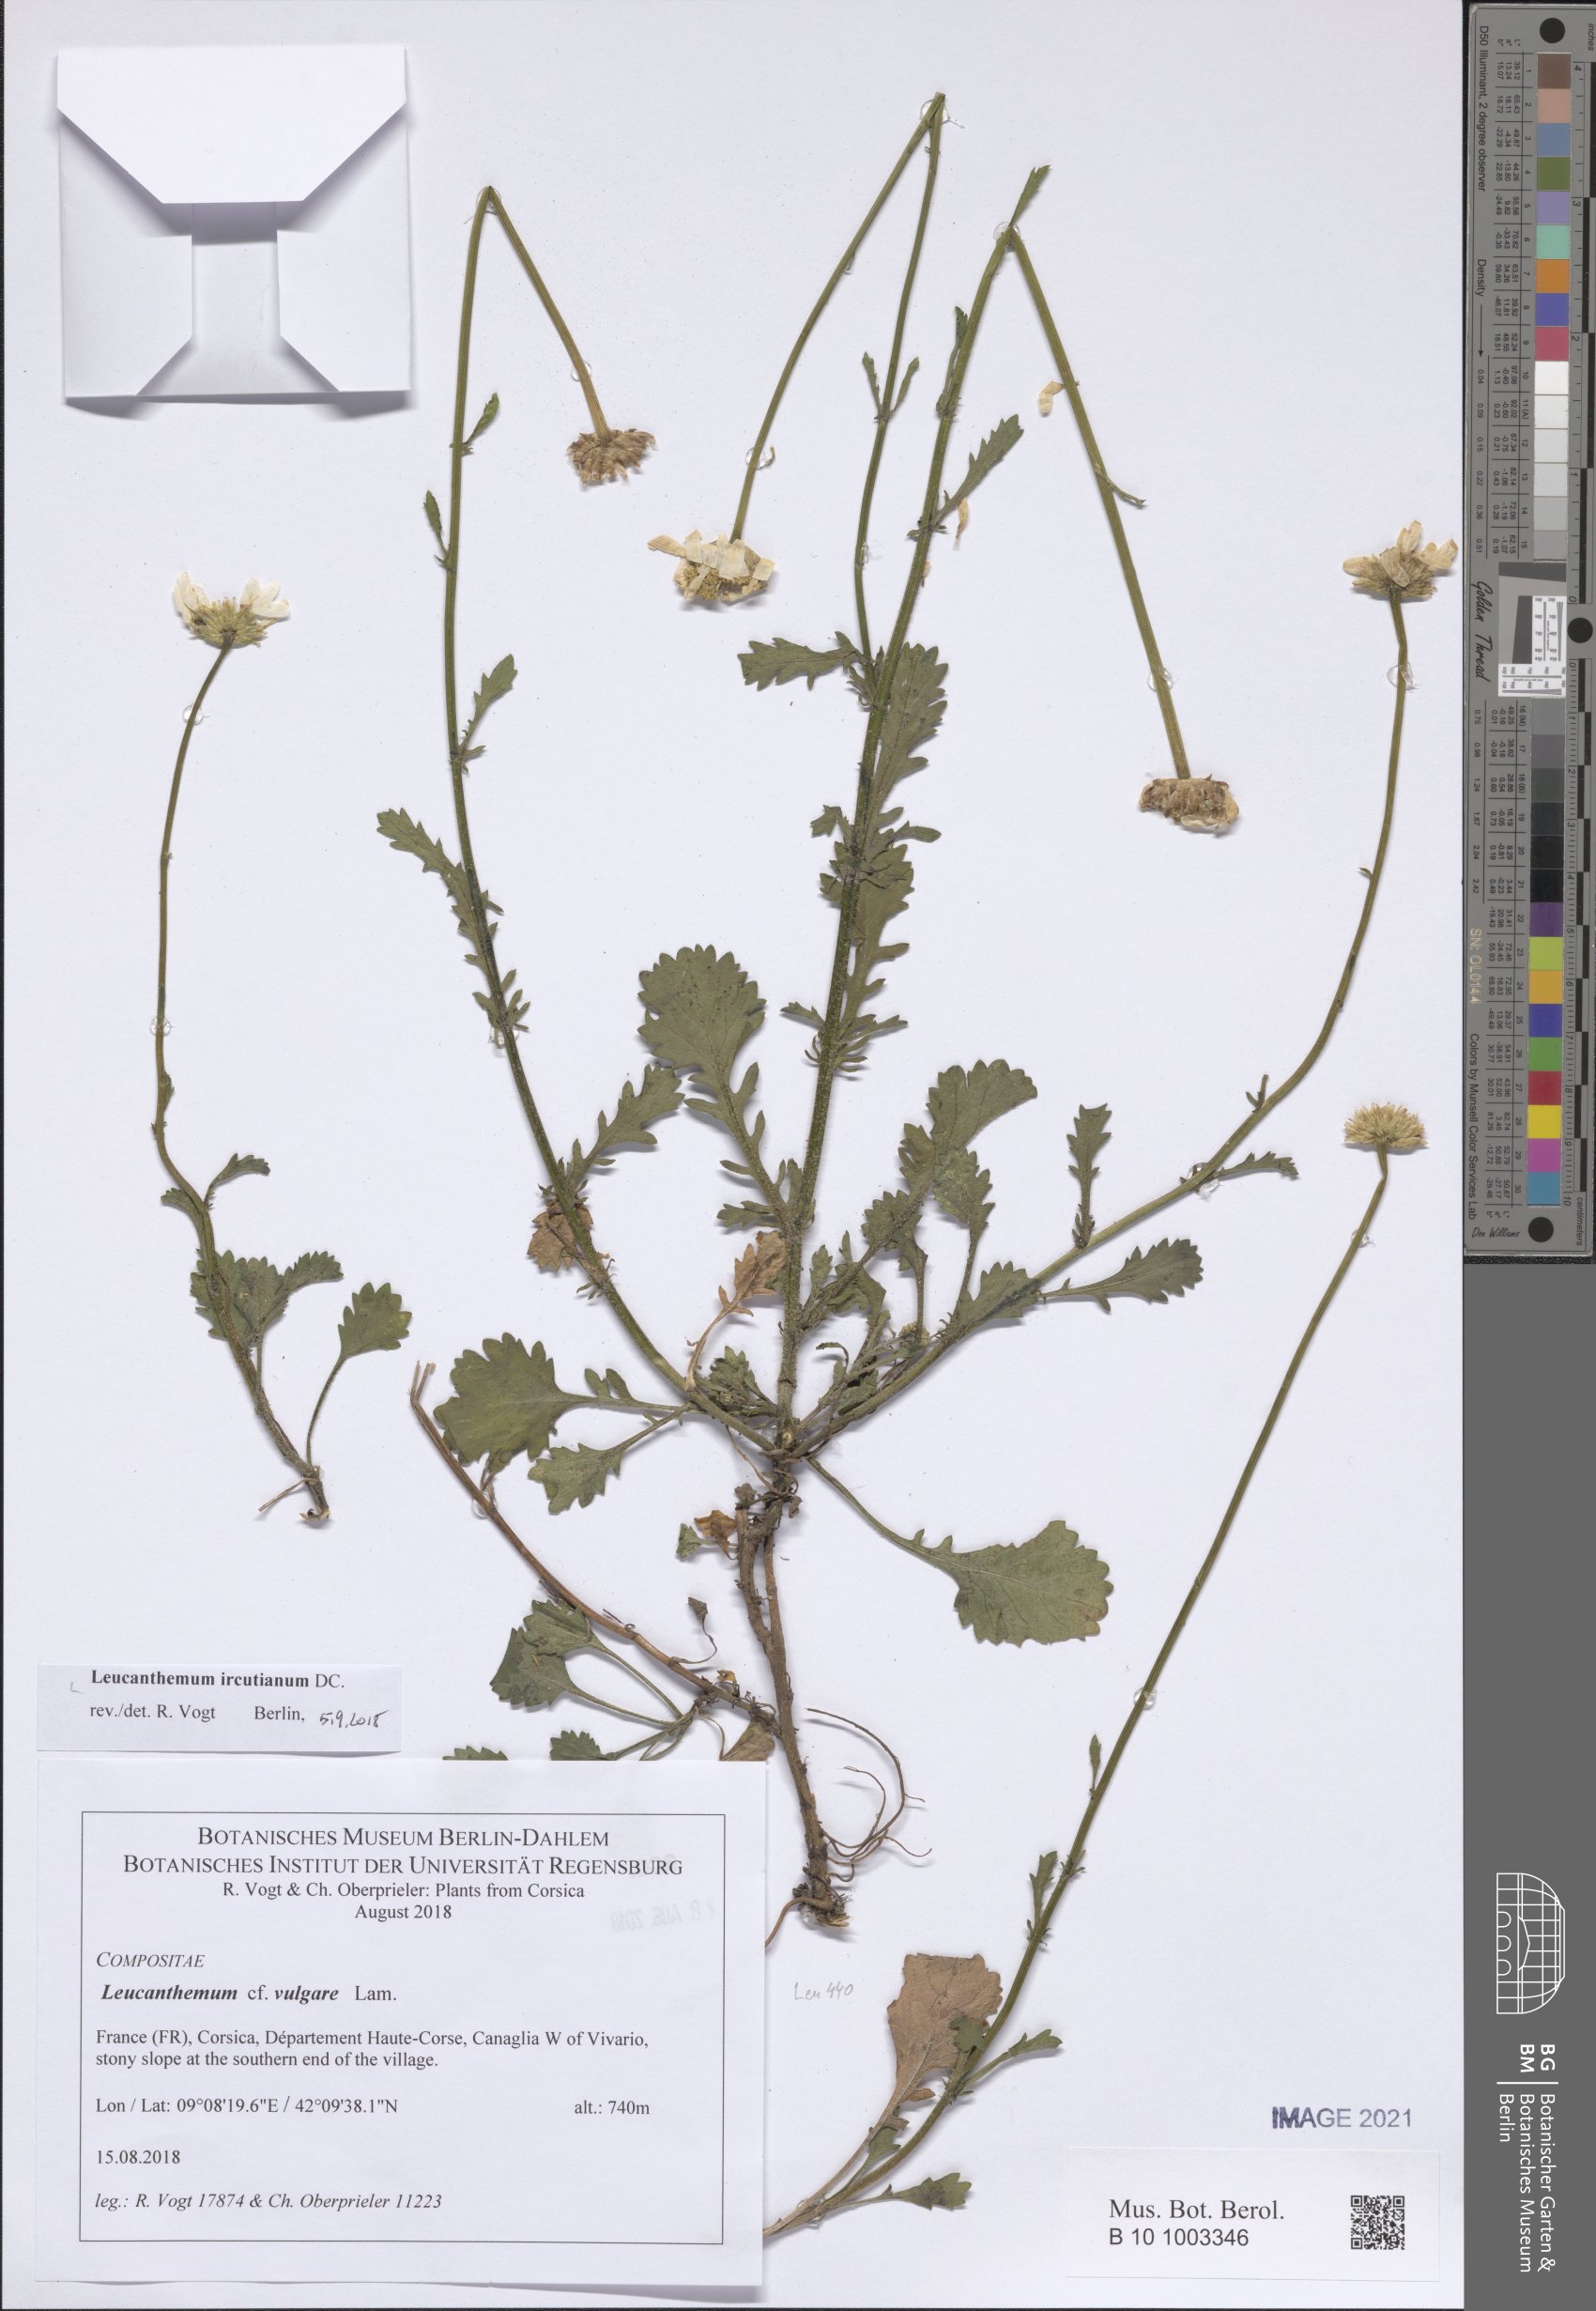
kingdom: Plantae
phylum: Tracheophyta
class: Magnoliopsida
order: Asterales
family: Asteraceae
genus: Leucanthemum
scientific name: Leucanthemum ircutianum
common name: Daisy
